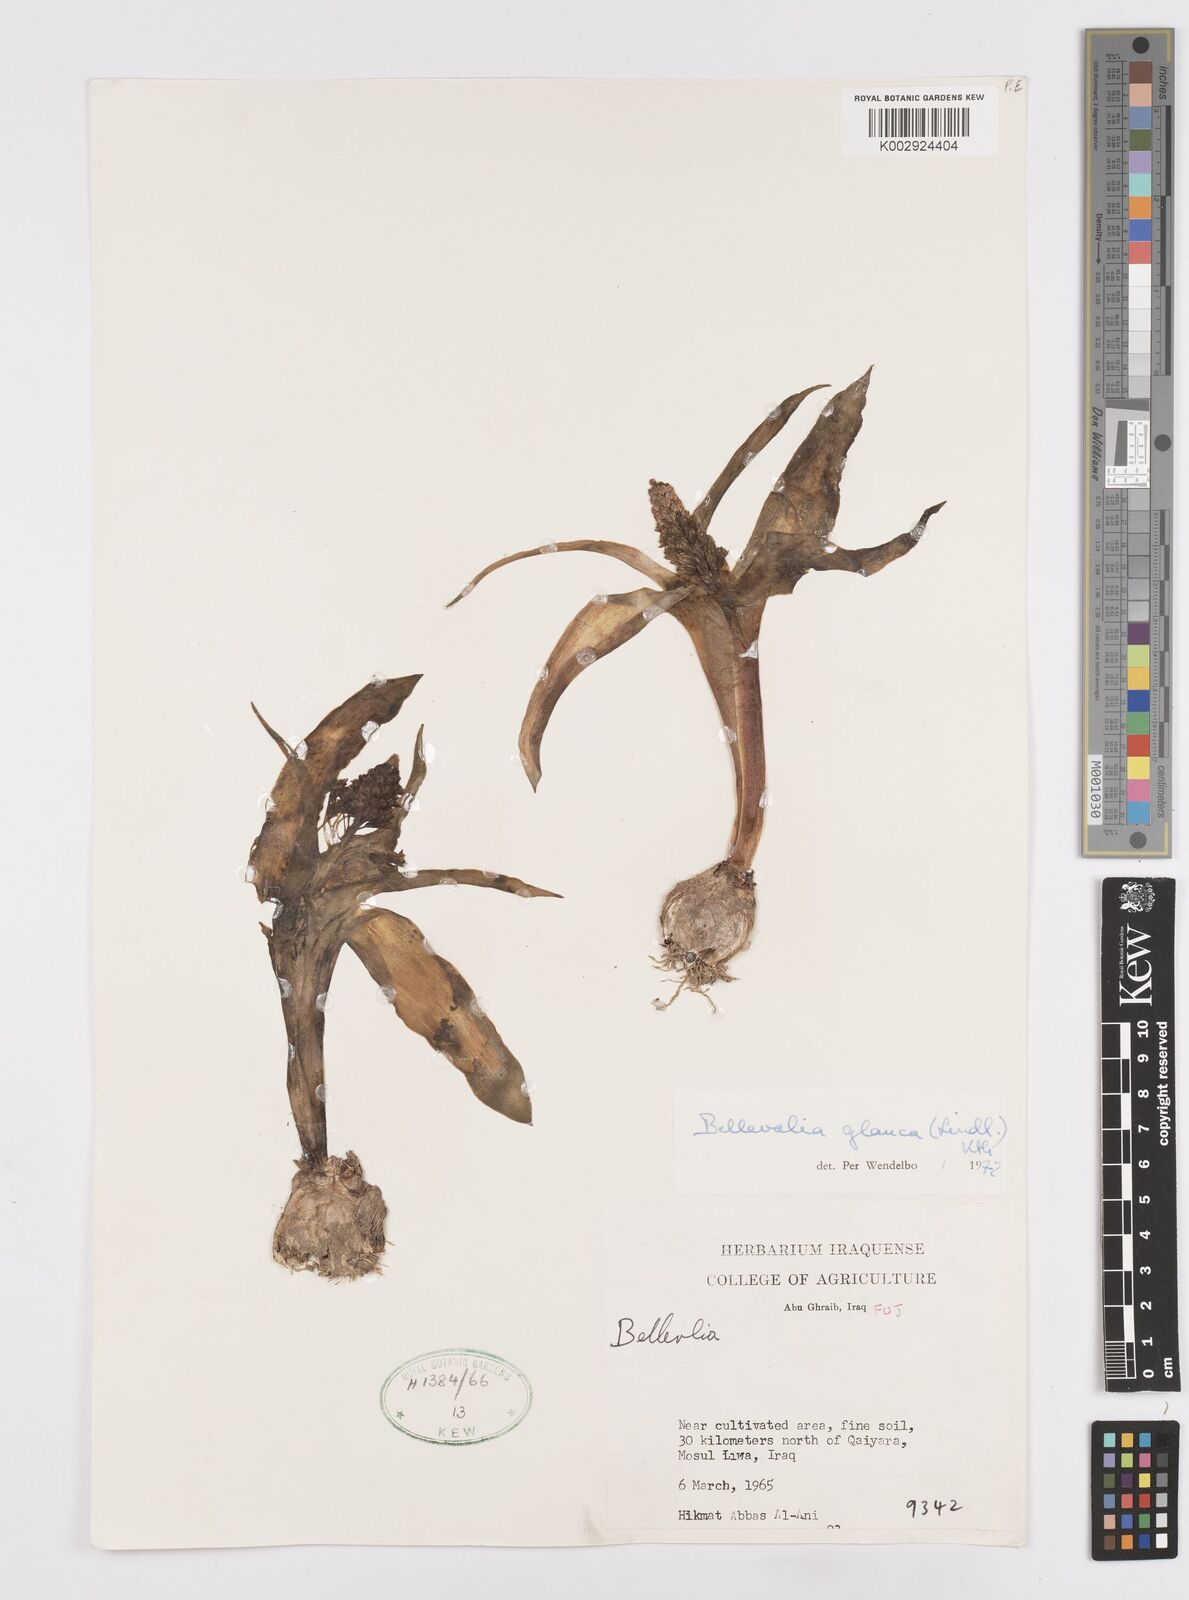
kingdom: Plantae
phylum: Tracheophyta
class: Liliopsida
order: Asparagales
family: Asparagaceae
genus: Bellevalia
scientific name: Bellevalia glauca
